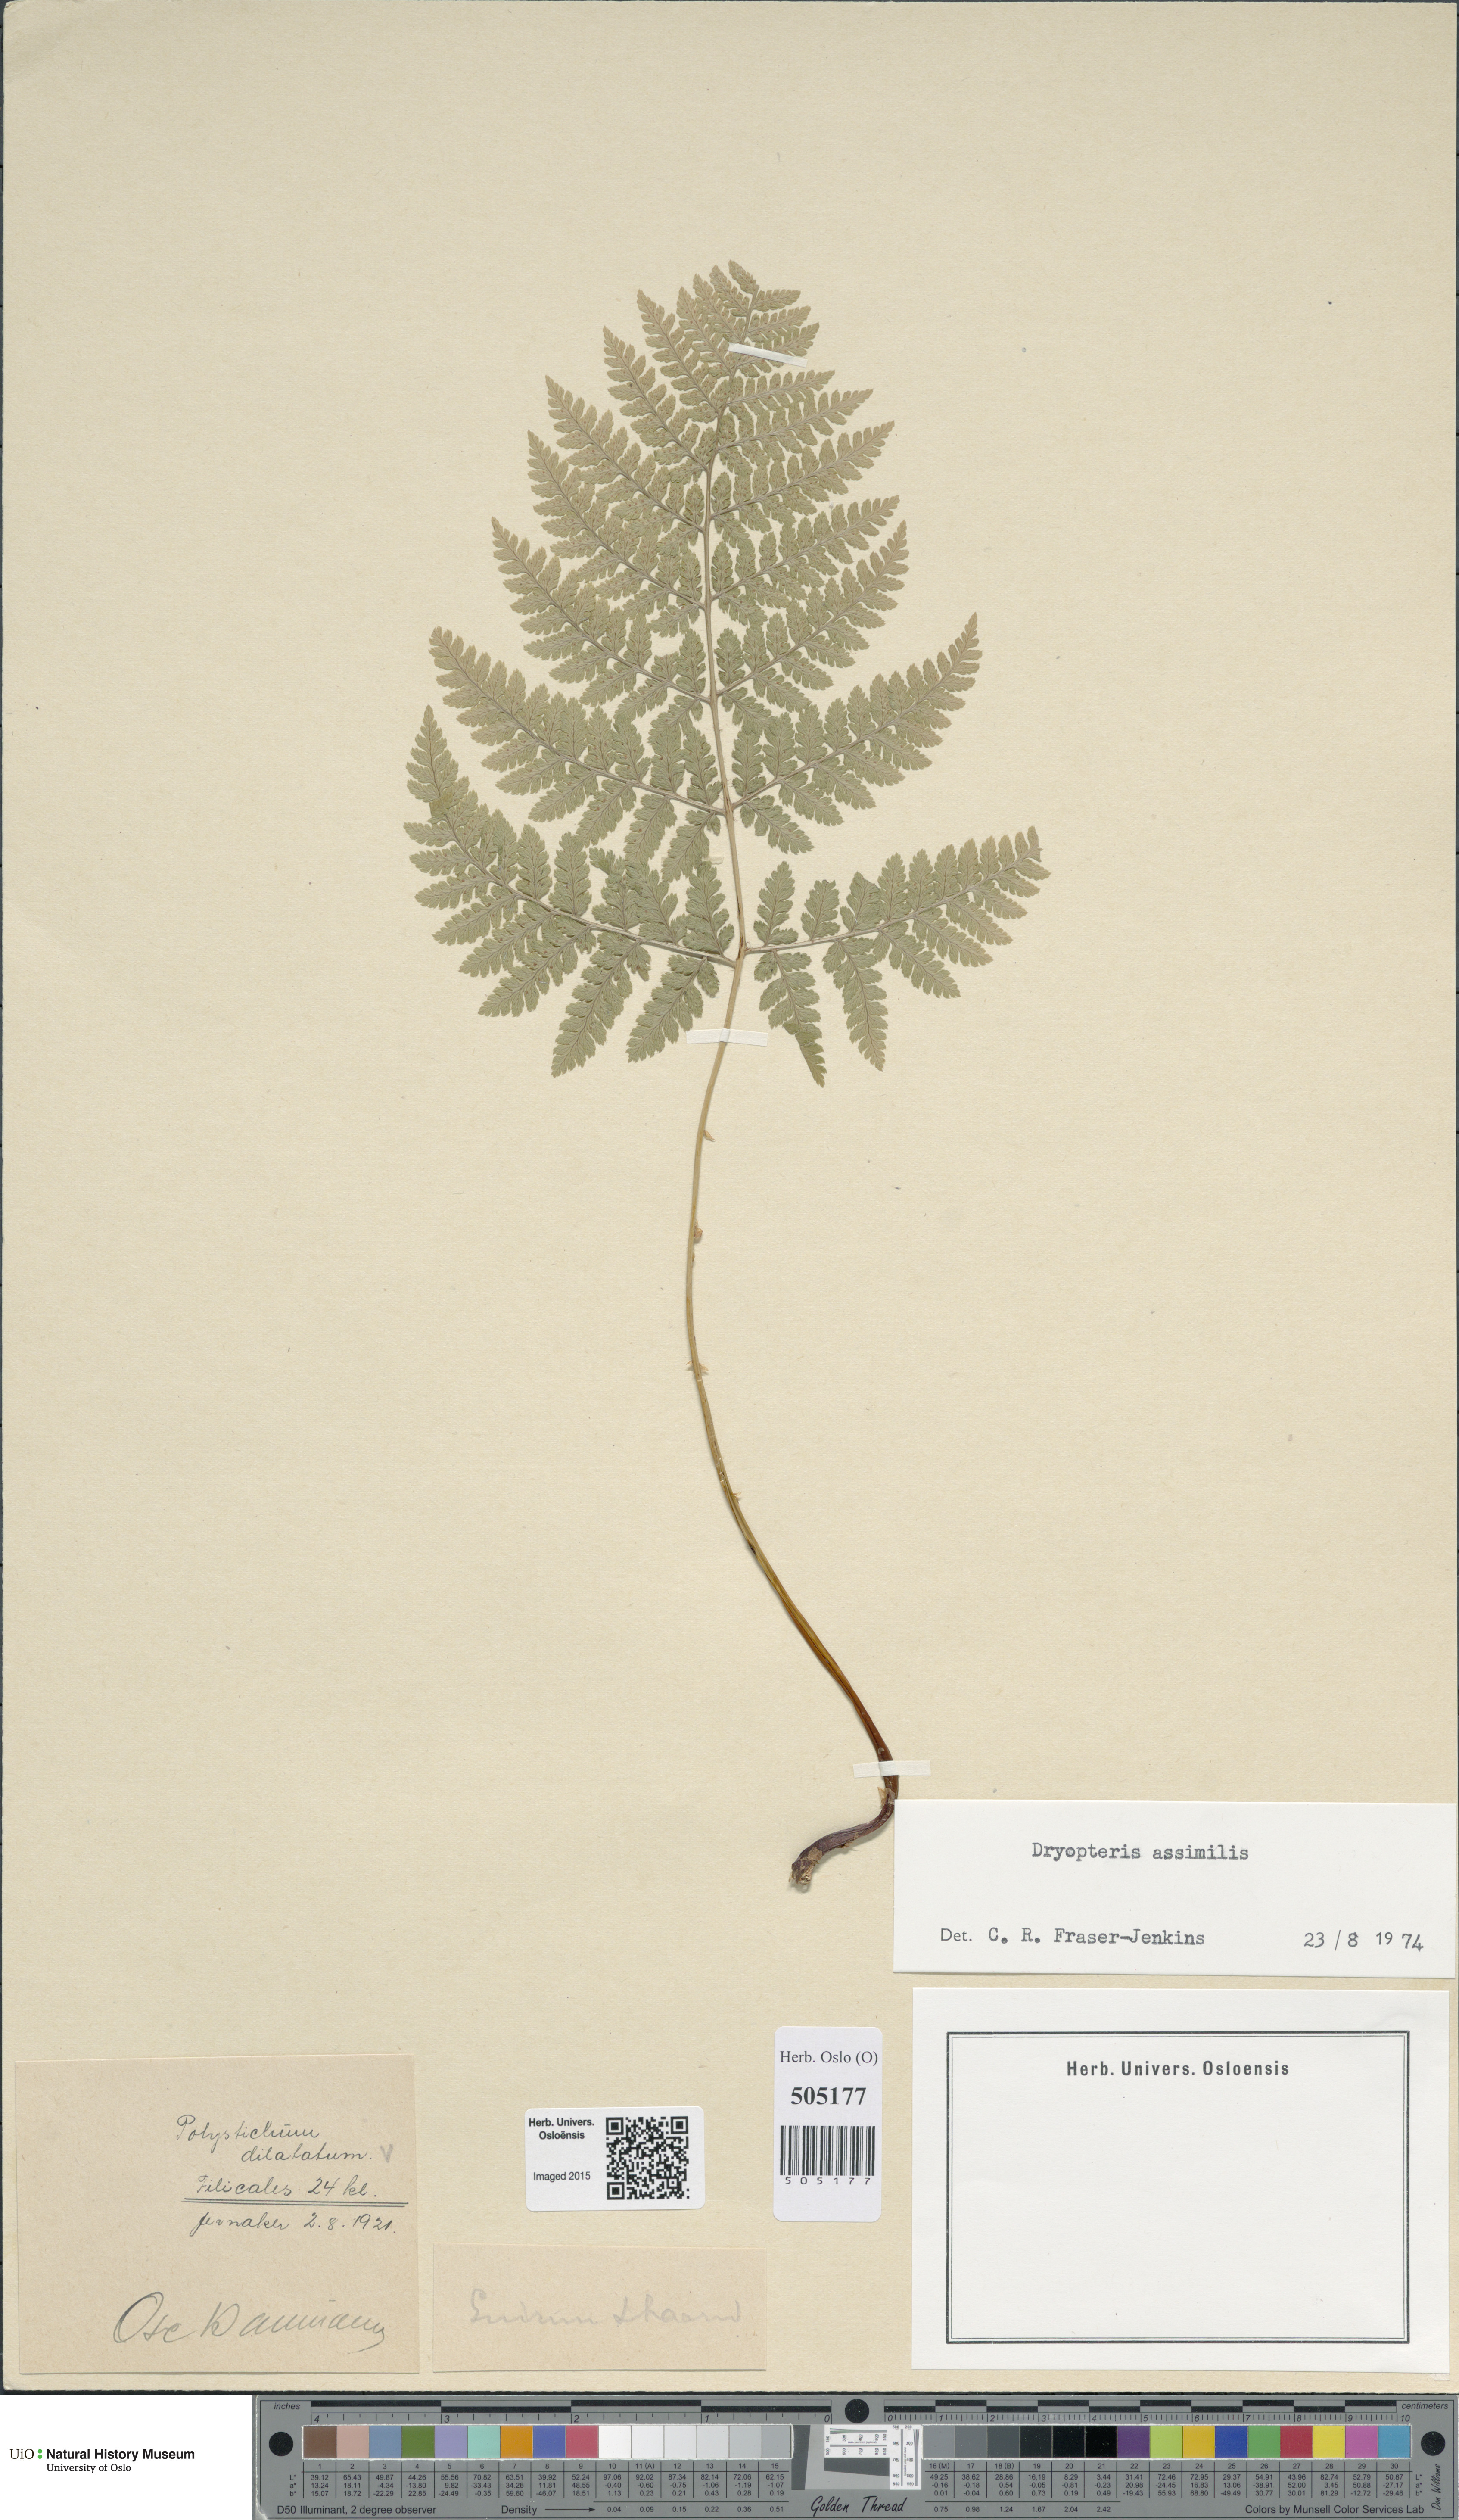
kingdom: Plantae
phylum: Tracheophyta
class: Polypodiopsida
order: Polypodiales
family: Dryopteridaceae
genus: Dryopteris
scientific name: Dryopteris expansa
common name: Northern buckler fern
